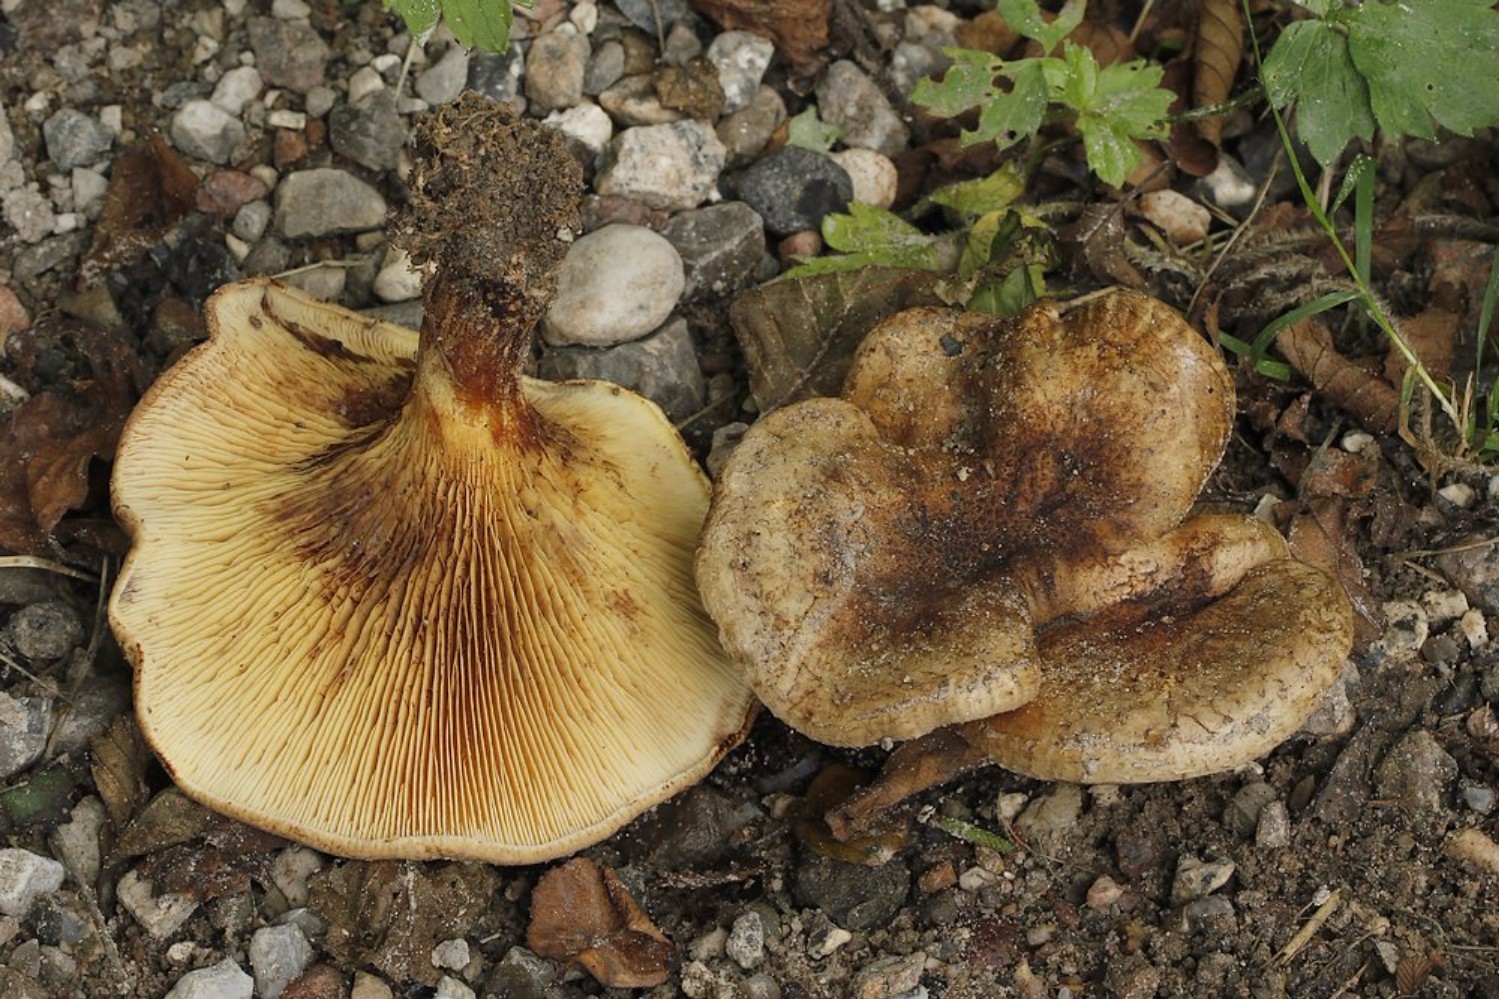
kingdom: Fungi
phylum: Basidiomycota
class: Agaricomycetes
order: Boletales
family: Paxillaceae
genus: Paxillus
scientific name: Paxillus rubicundulus
